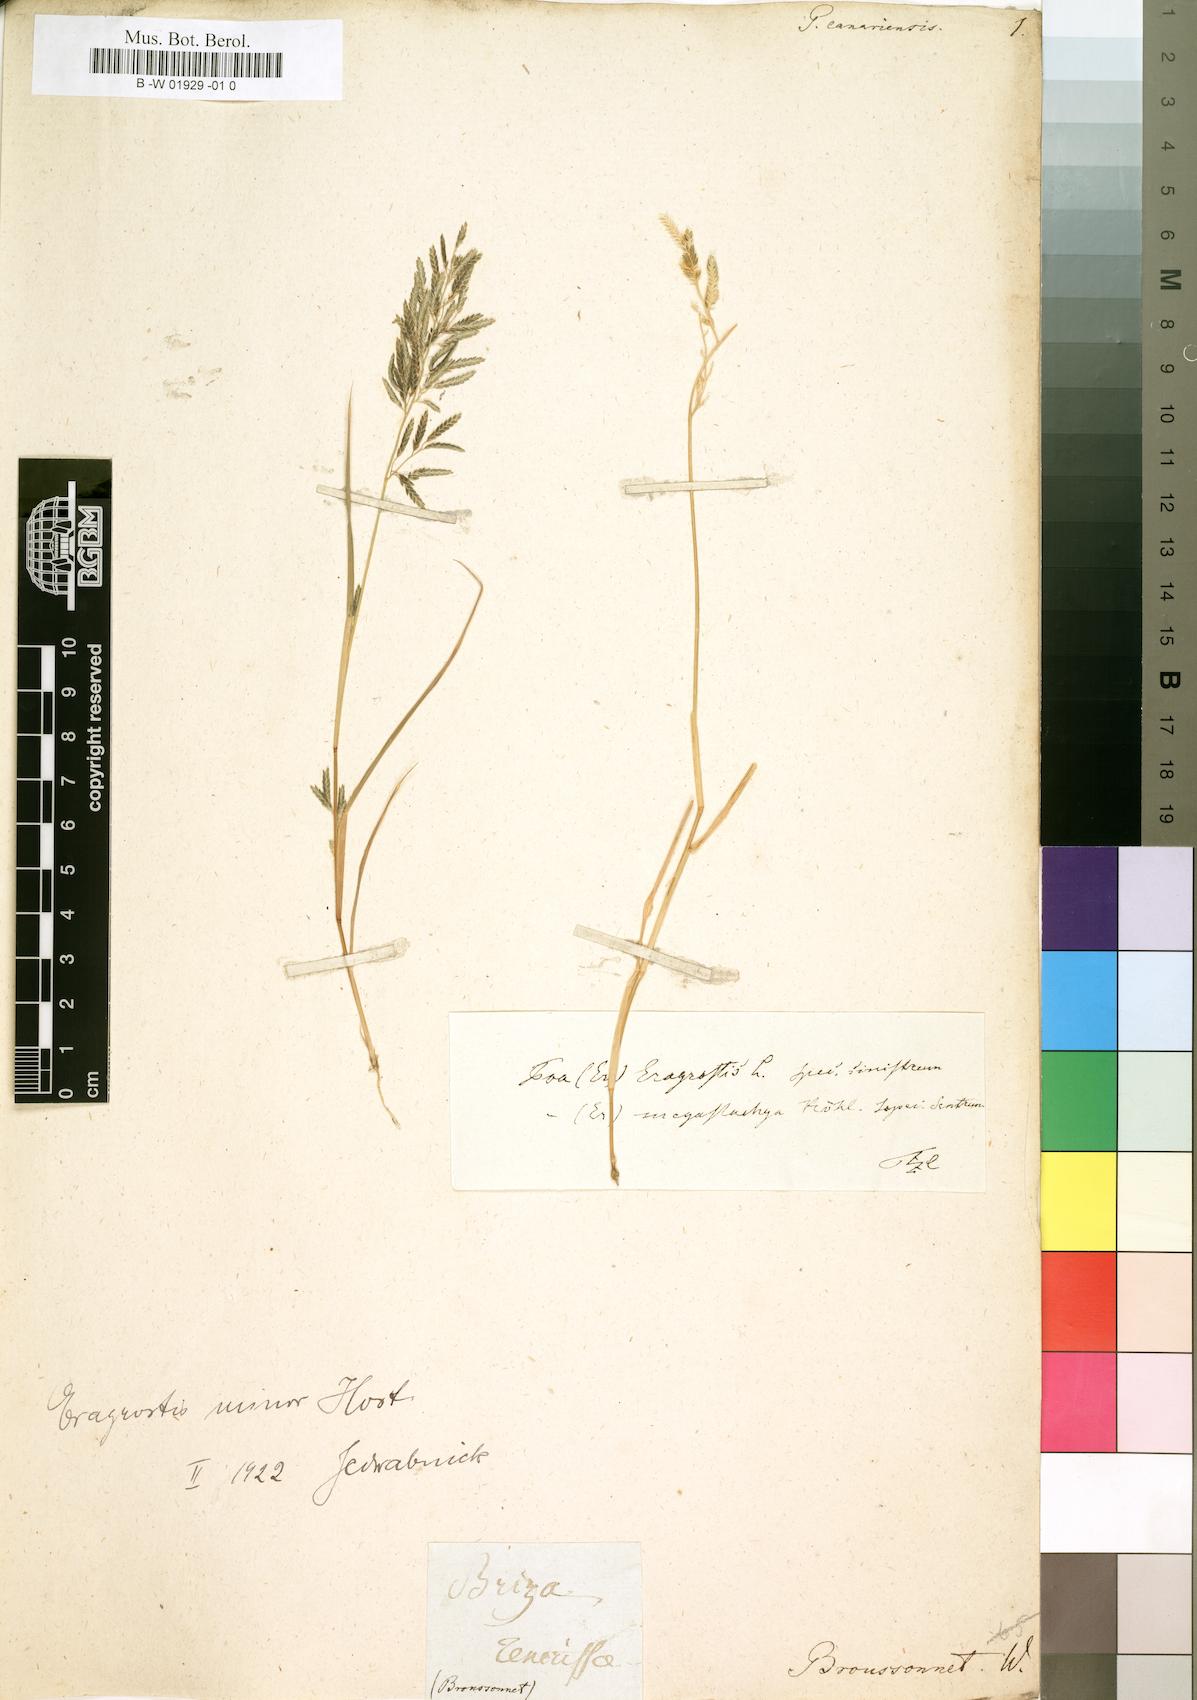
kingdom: Plantae
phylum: Tracheophyta
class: Liliopsida
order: Poales
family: Poaceae
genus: Eragrostis
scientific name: Eragrostis minor
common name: Small love-grass
